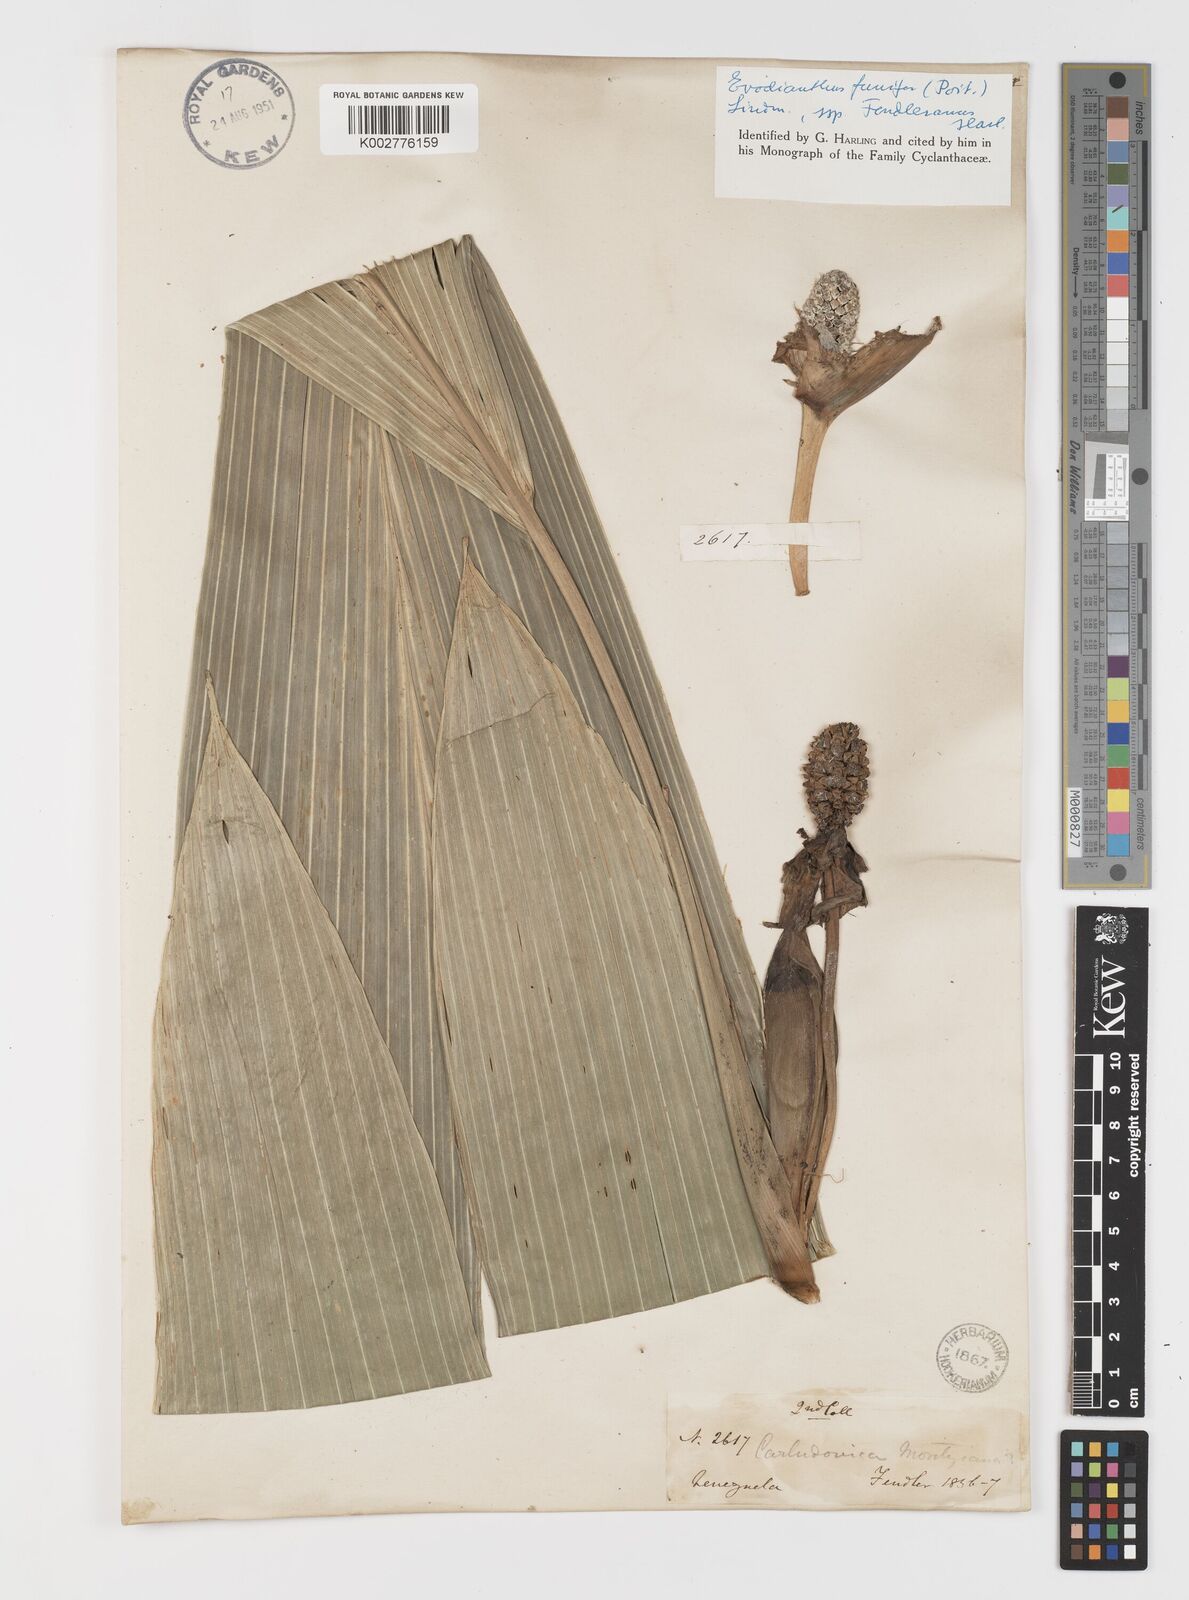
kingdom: Plantae
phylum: Tracheophyta
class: Liliopsida
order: Pandanales
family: Cyclanthaceae
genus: Evodianthus
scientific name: Evodianthus funifer
